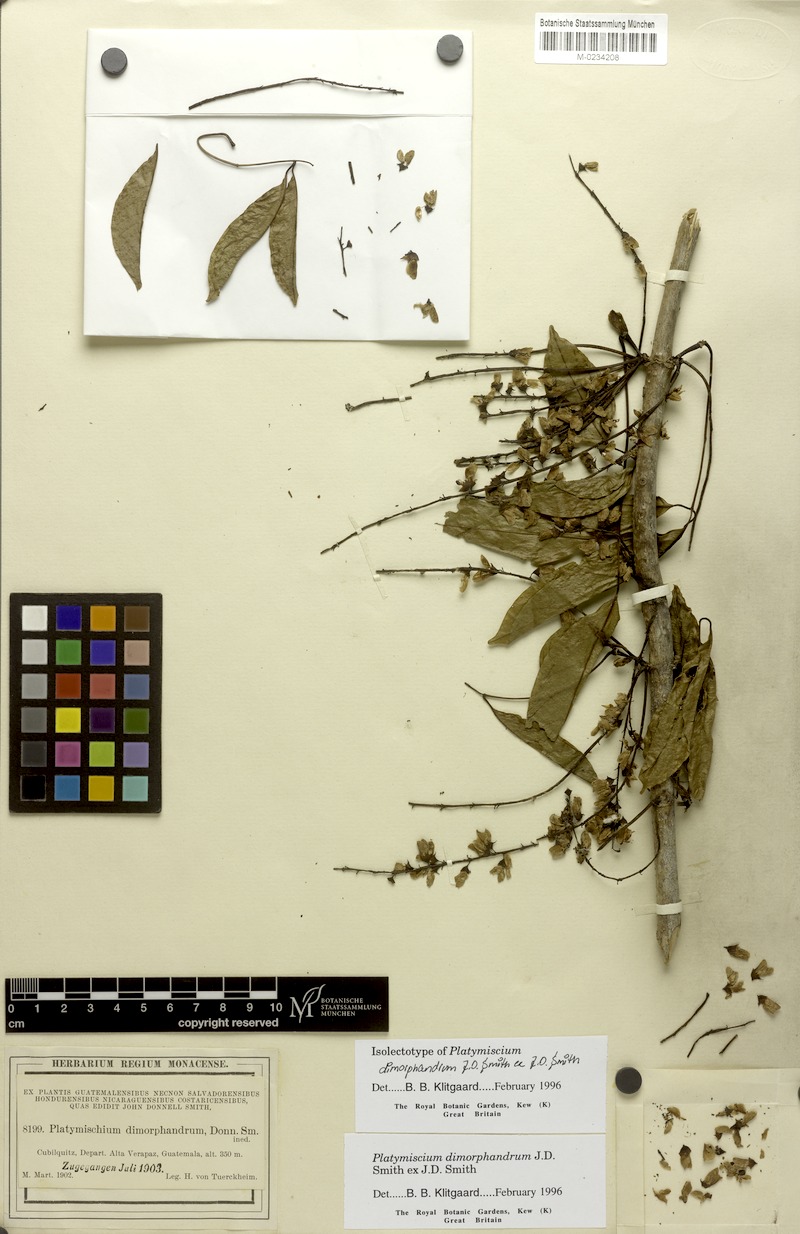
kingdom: Plantae
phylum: Tracheophyta
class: Magnoliopsida
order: Fabales
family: Fabaceae
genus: Platymiscium
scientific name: Platymiscium dimorphandrum
